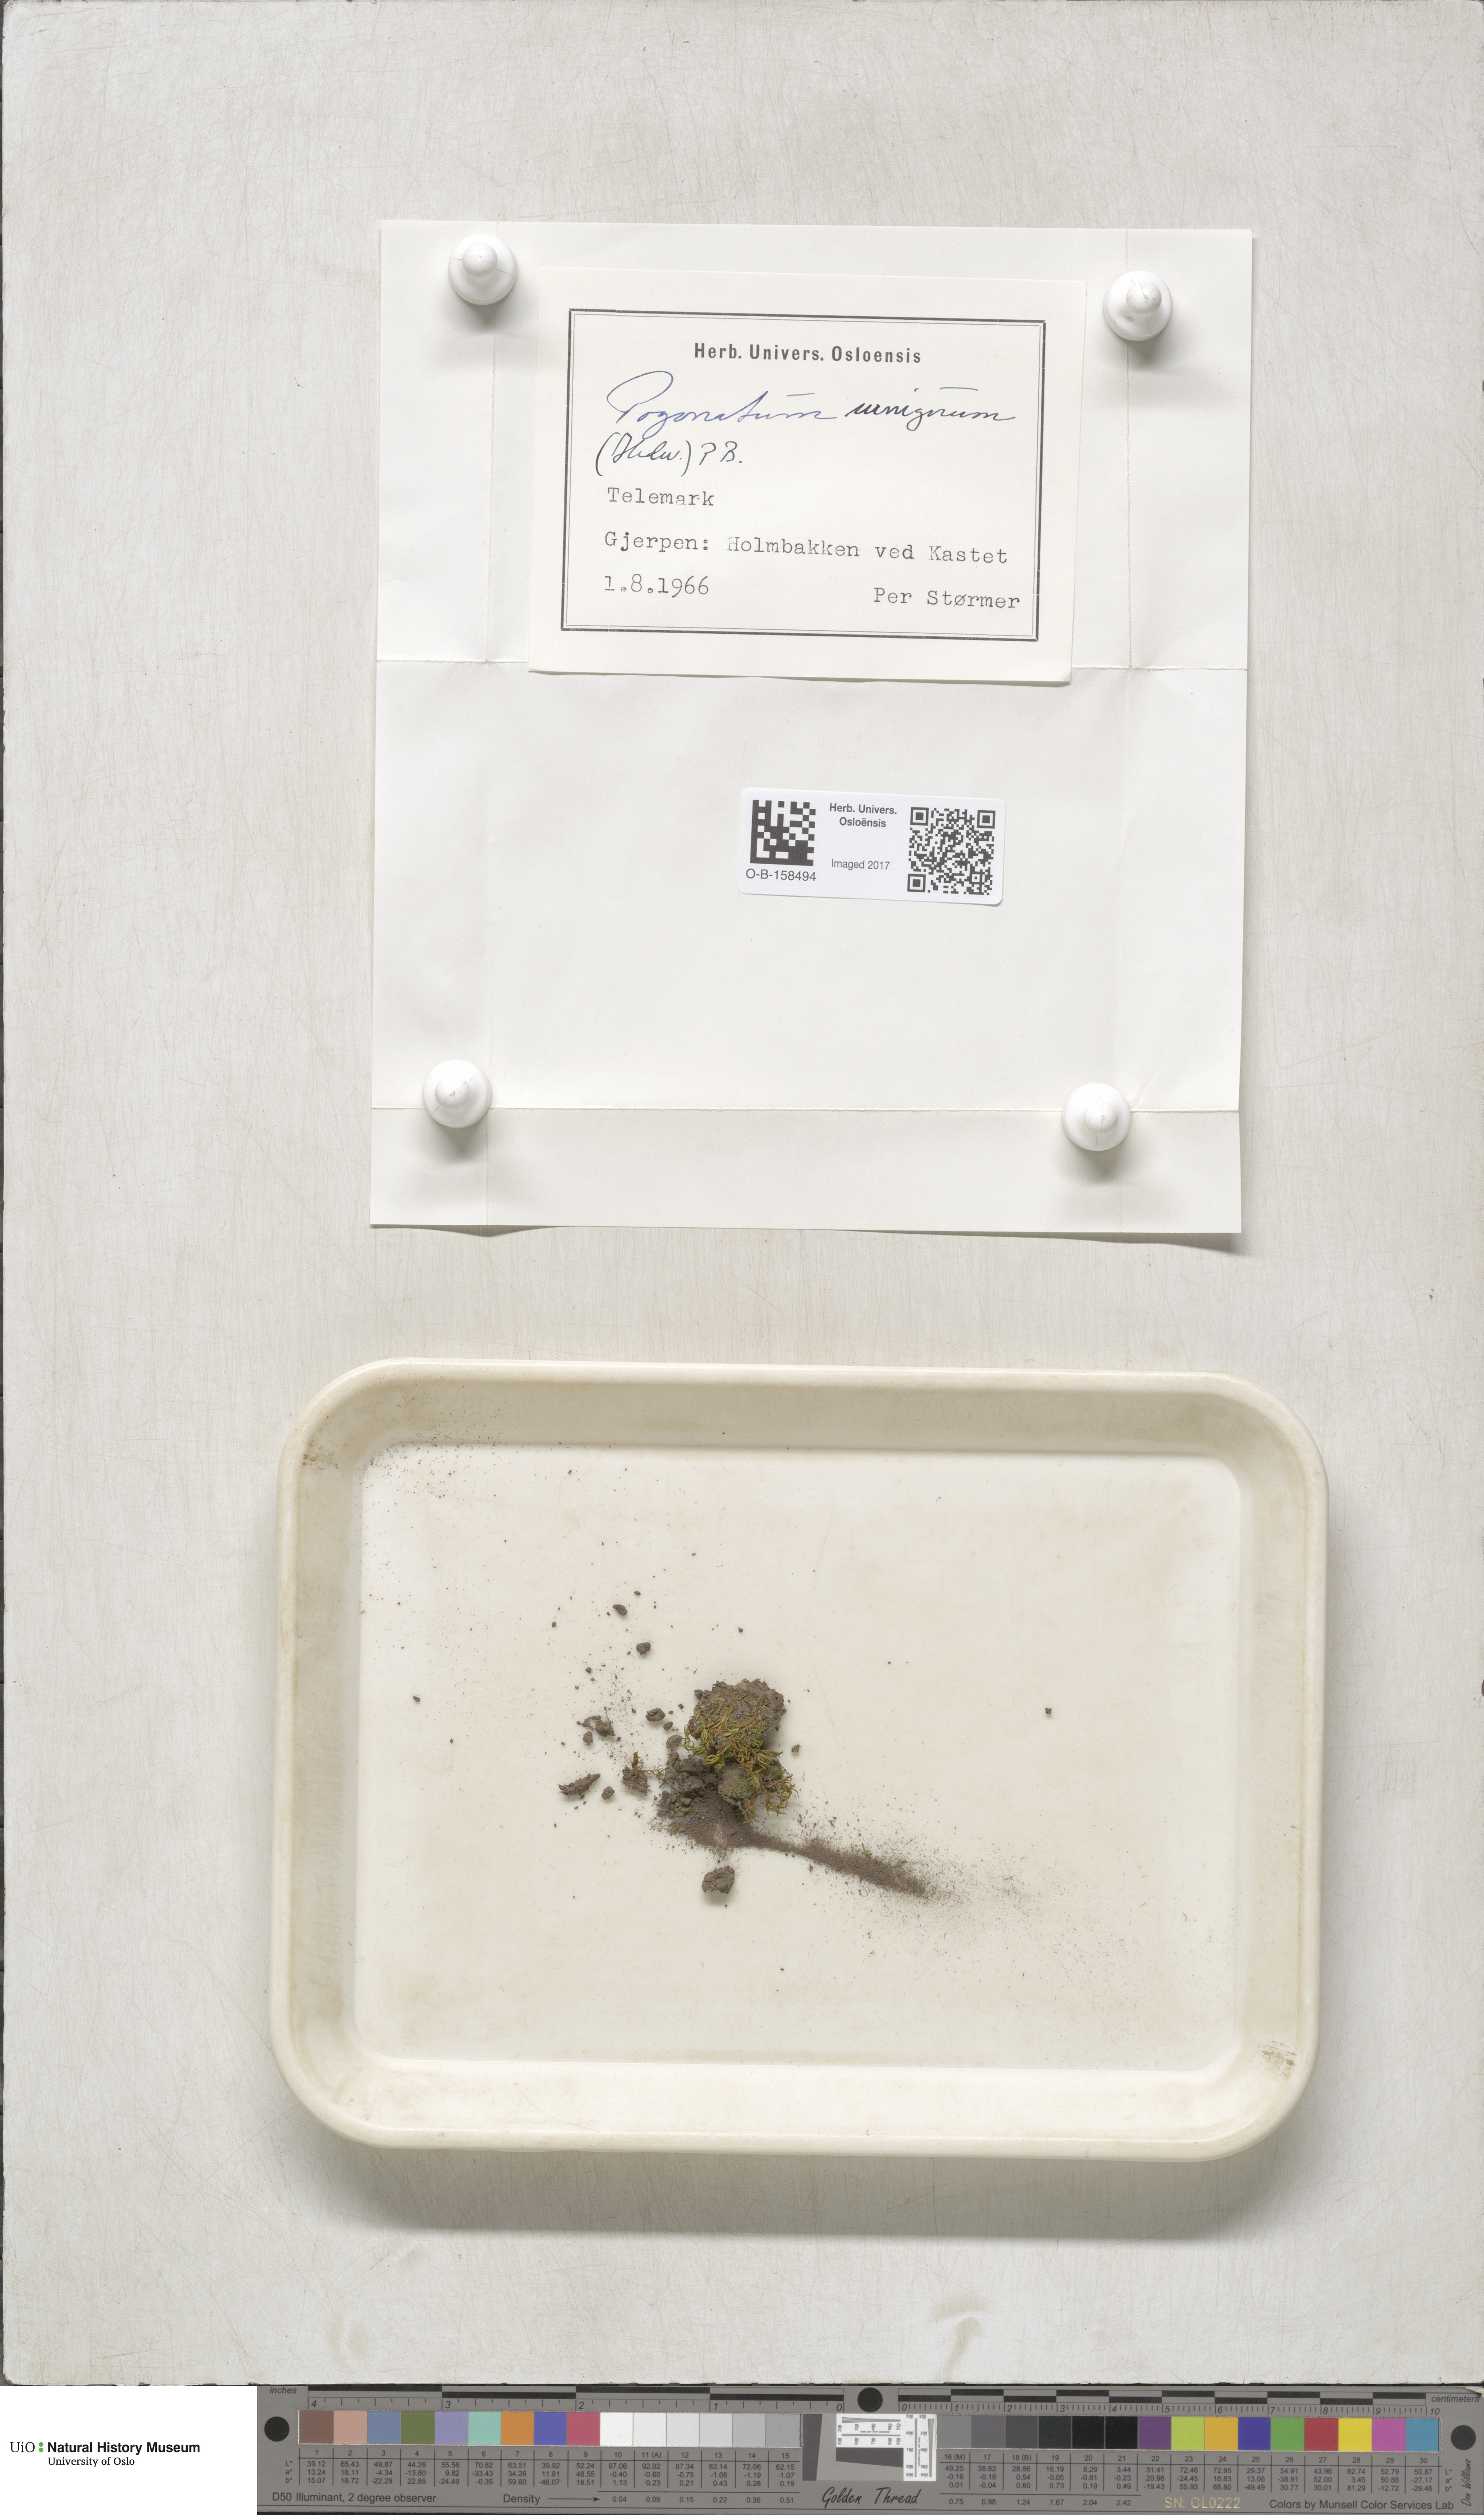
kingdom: Plantae
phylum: Bryophyta
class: Polytrichopsida
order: Polytrichales
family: Polytrichaceae
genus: Pogonatum
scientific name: Pogonatum urnigerum
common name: Urn hair moss
